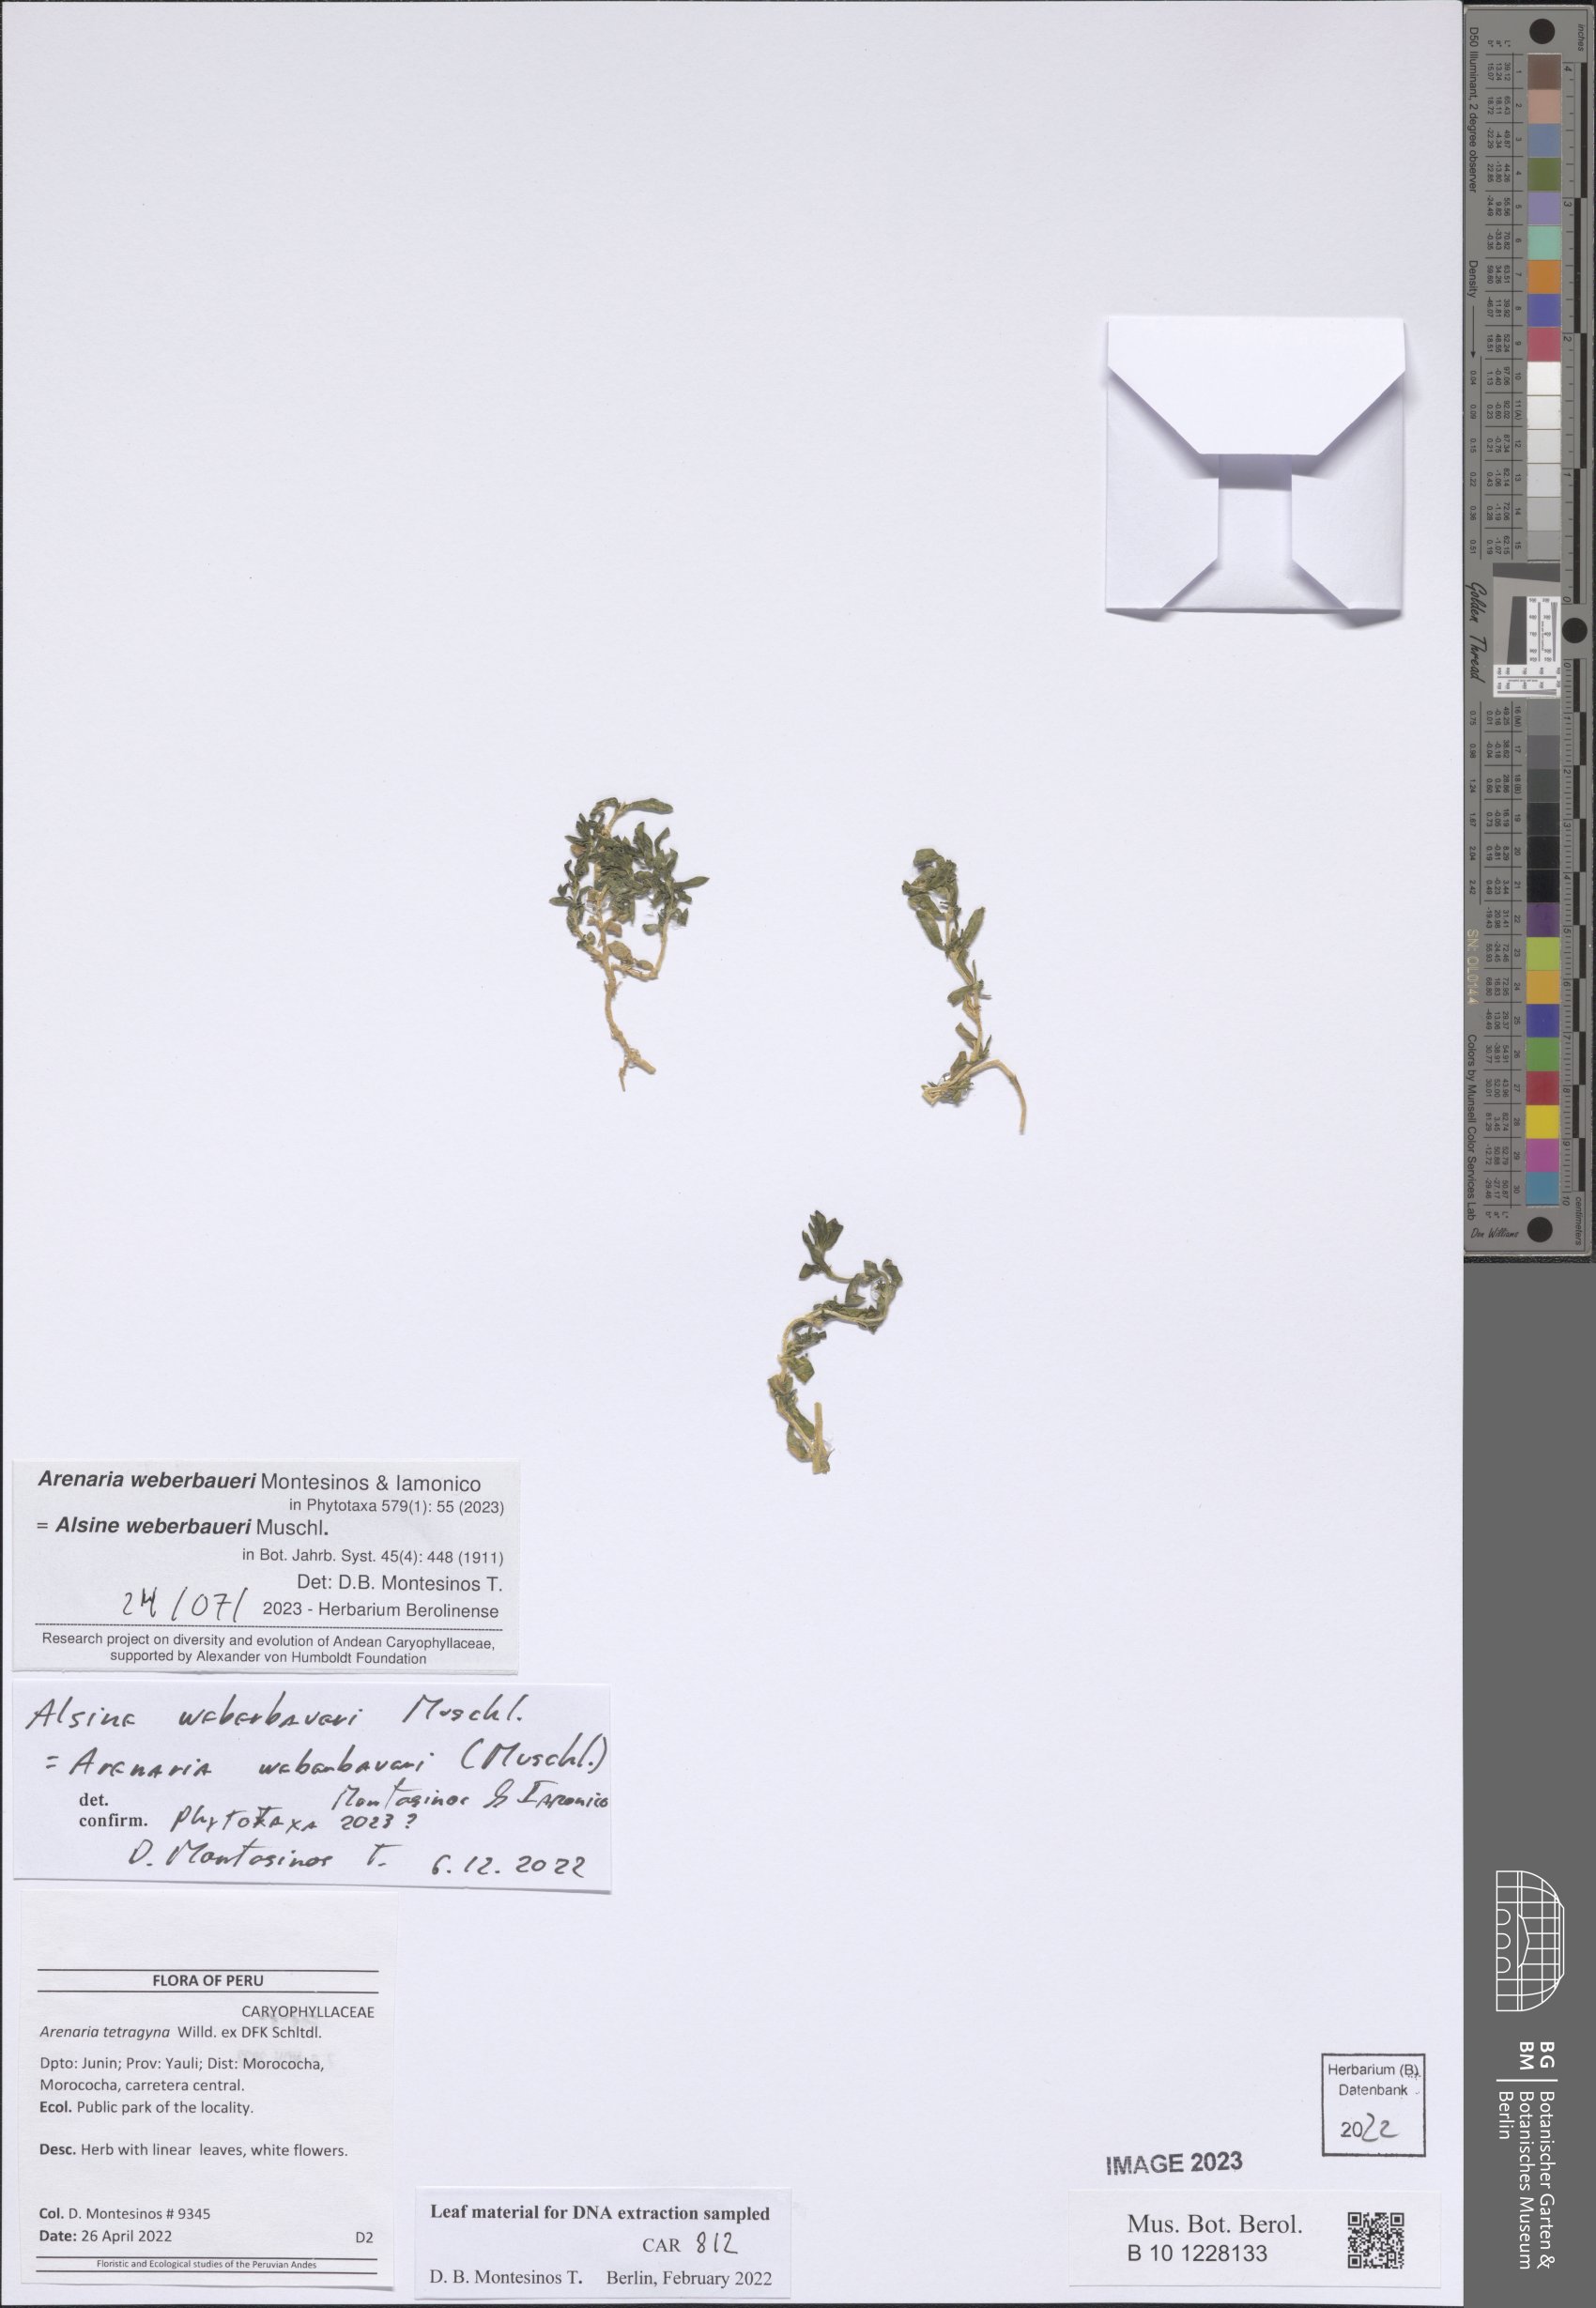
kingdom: Plantae
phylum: Tracheophyta
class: Magnoliopsida
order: Caryophyllales
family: Caryophyllaceae
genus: Arenaria
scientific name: Arenaria tetragyna
